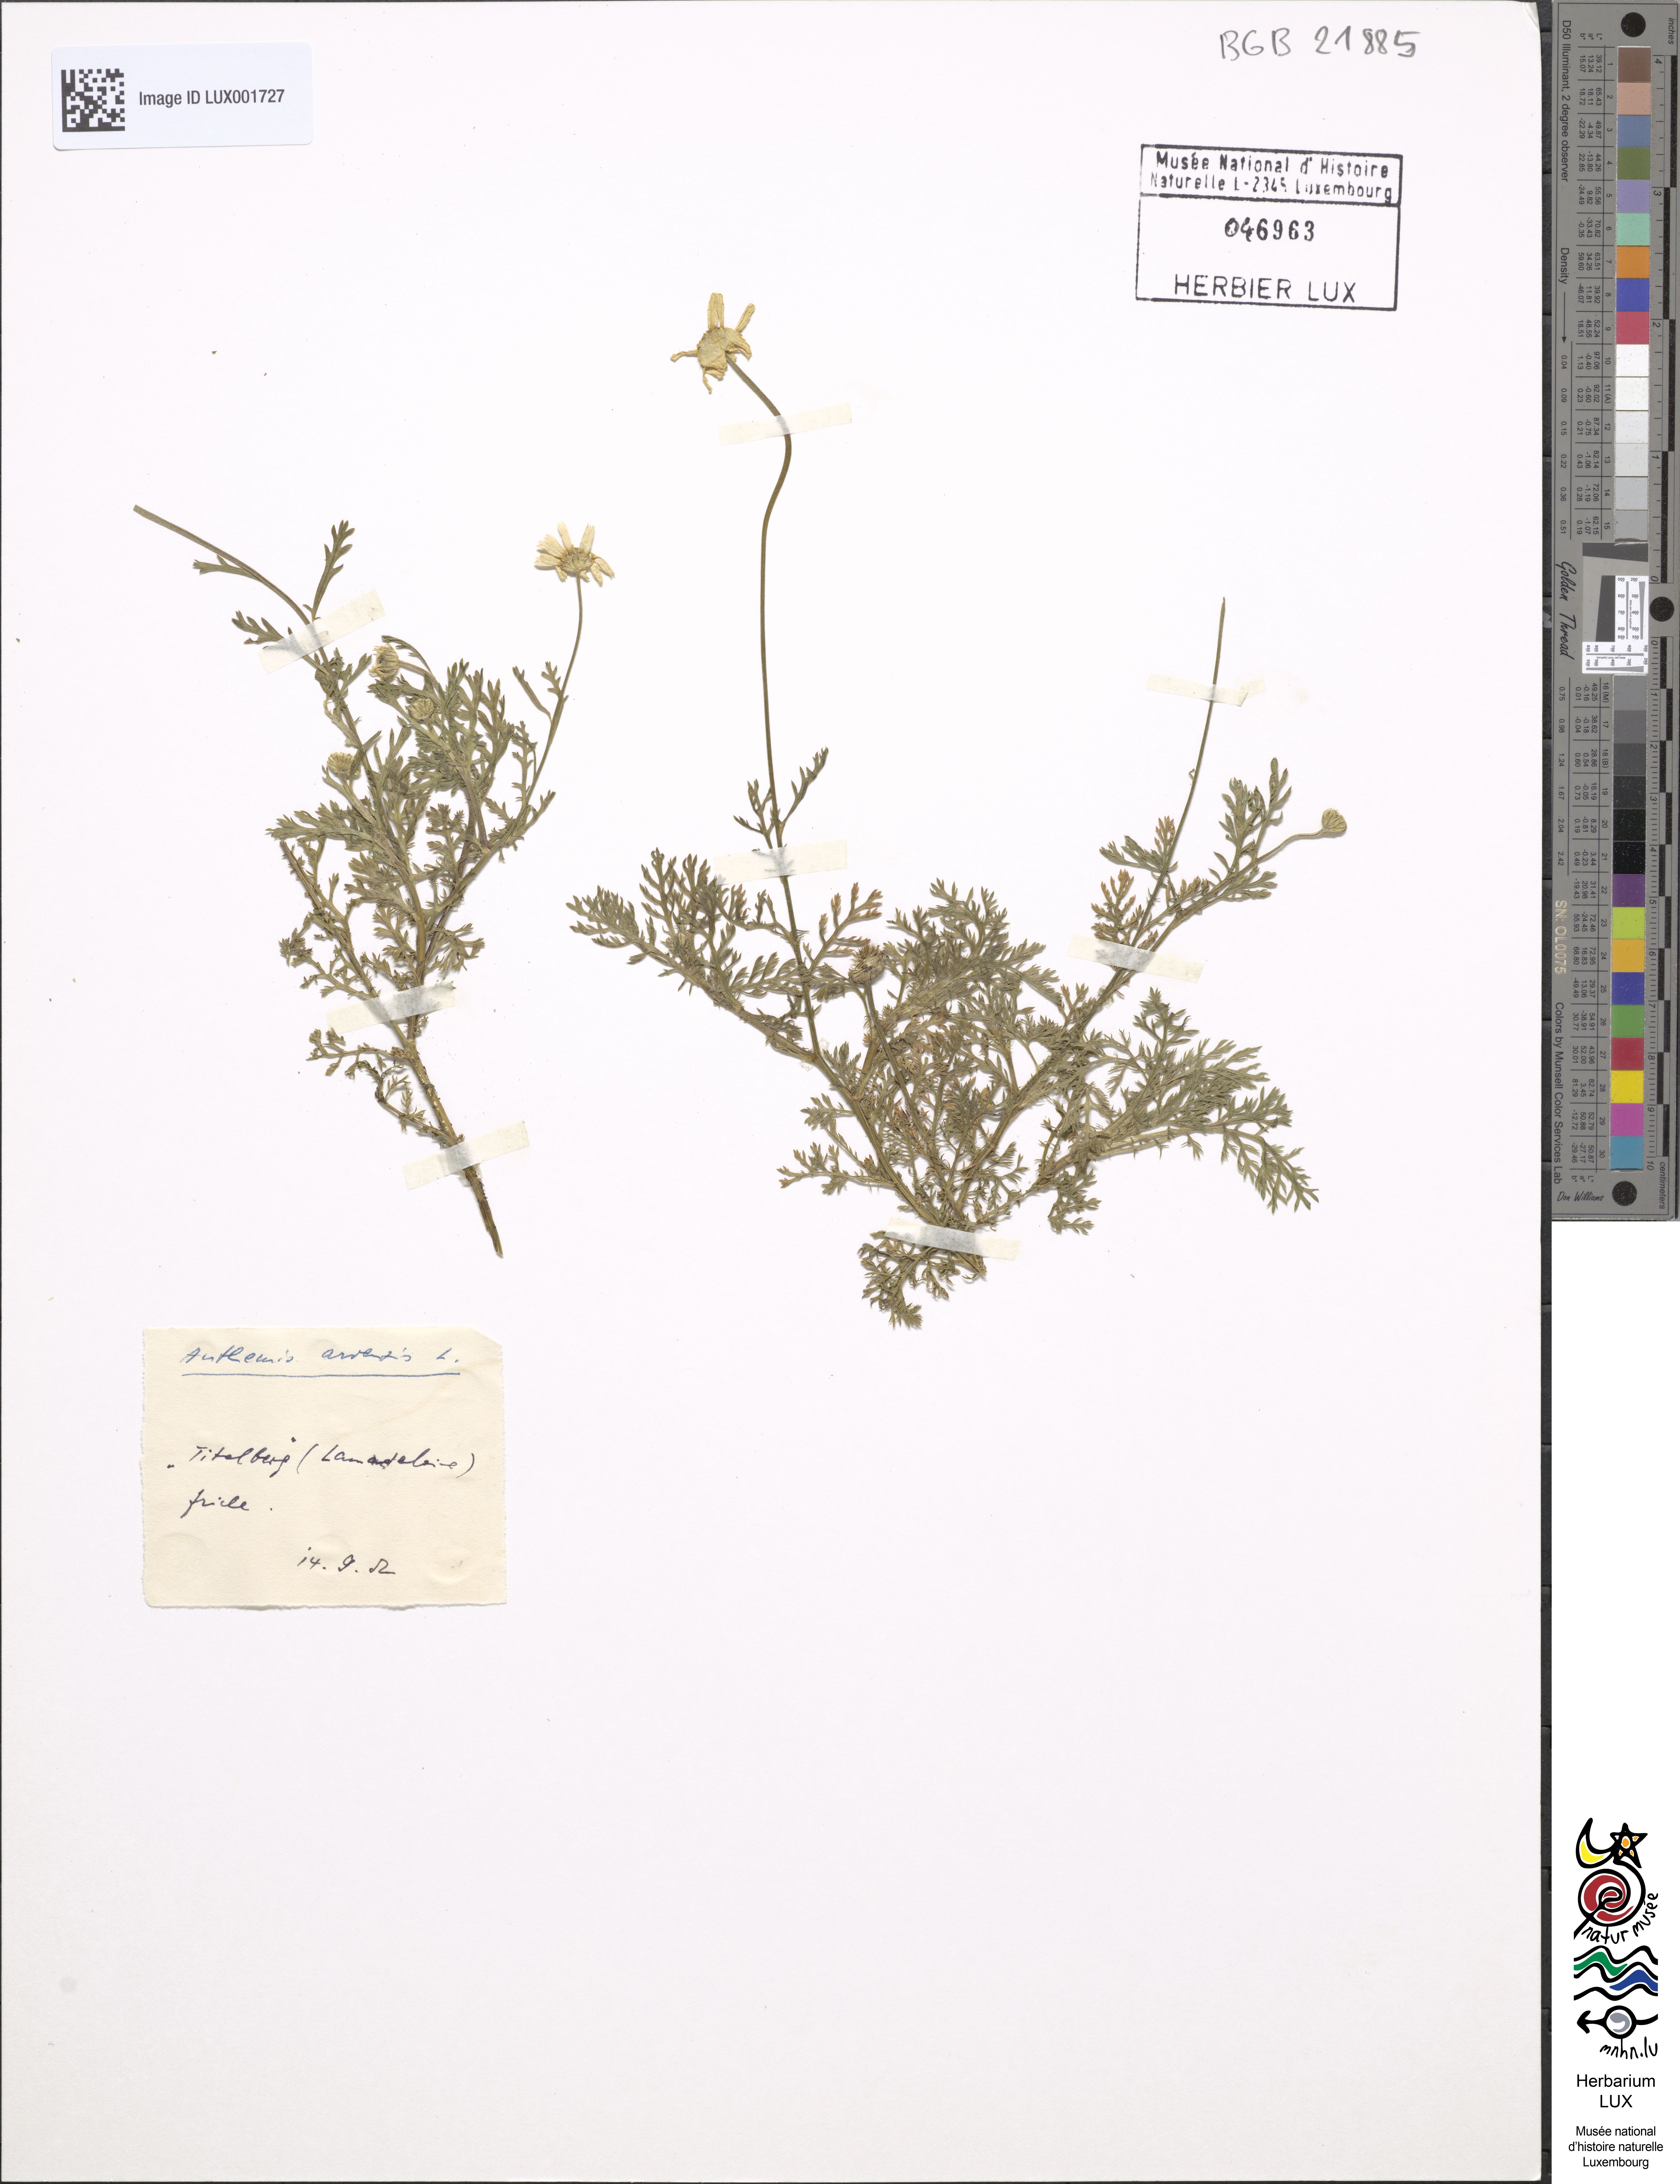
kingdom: Plantae
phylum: Tracheophyta
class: Magnoliopsida
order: Asterales
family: Asteraceae
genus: Anthemis
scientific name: Anthemis arvensis
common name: Corn chamomile
